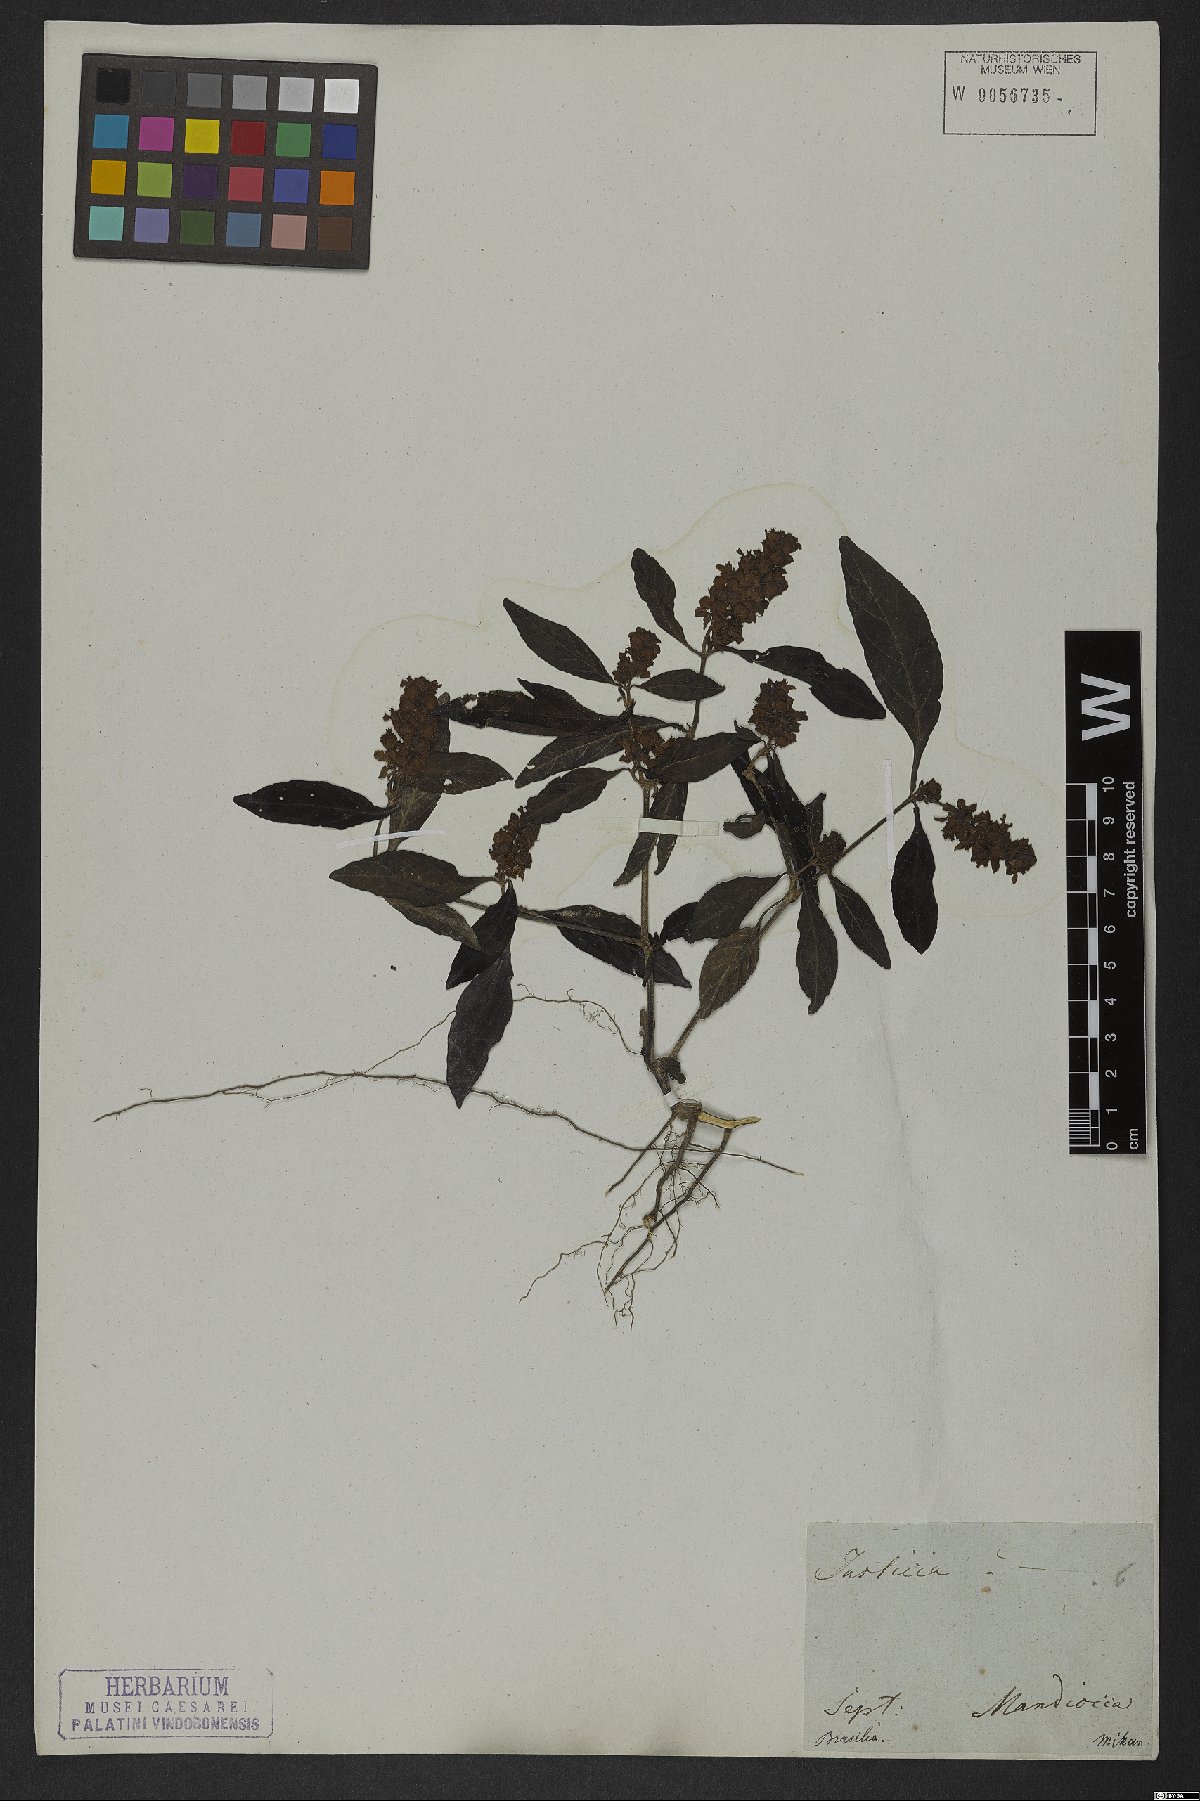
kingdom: Plantae
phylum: Tracheophyta
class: Magnoliopsida
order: Lamiales
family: Acanthaceae
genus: Dianthera
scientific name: Dianthera brasiliensis
